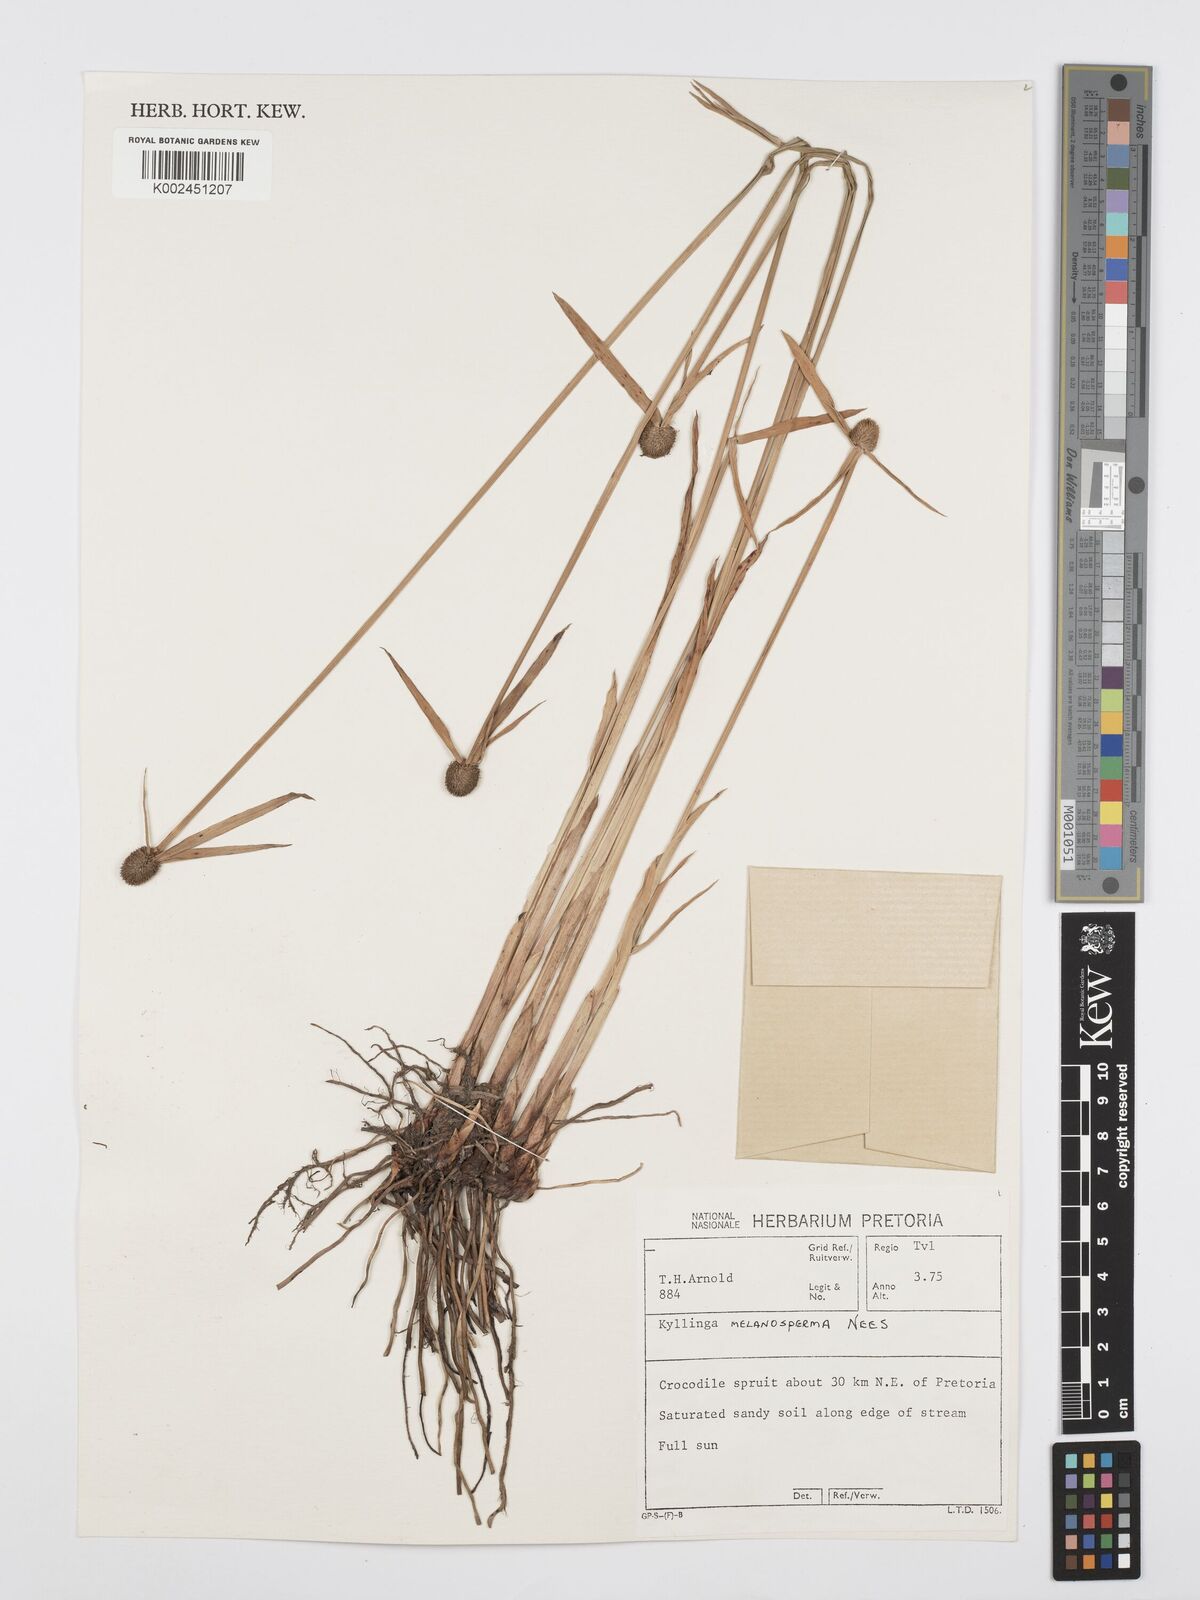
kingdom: Plantae
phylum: Tracheophyta
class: Liliopsida
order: Poales
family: Cyperaceae
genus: Cyperus
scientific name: Cyperus melanospermus
